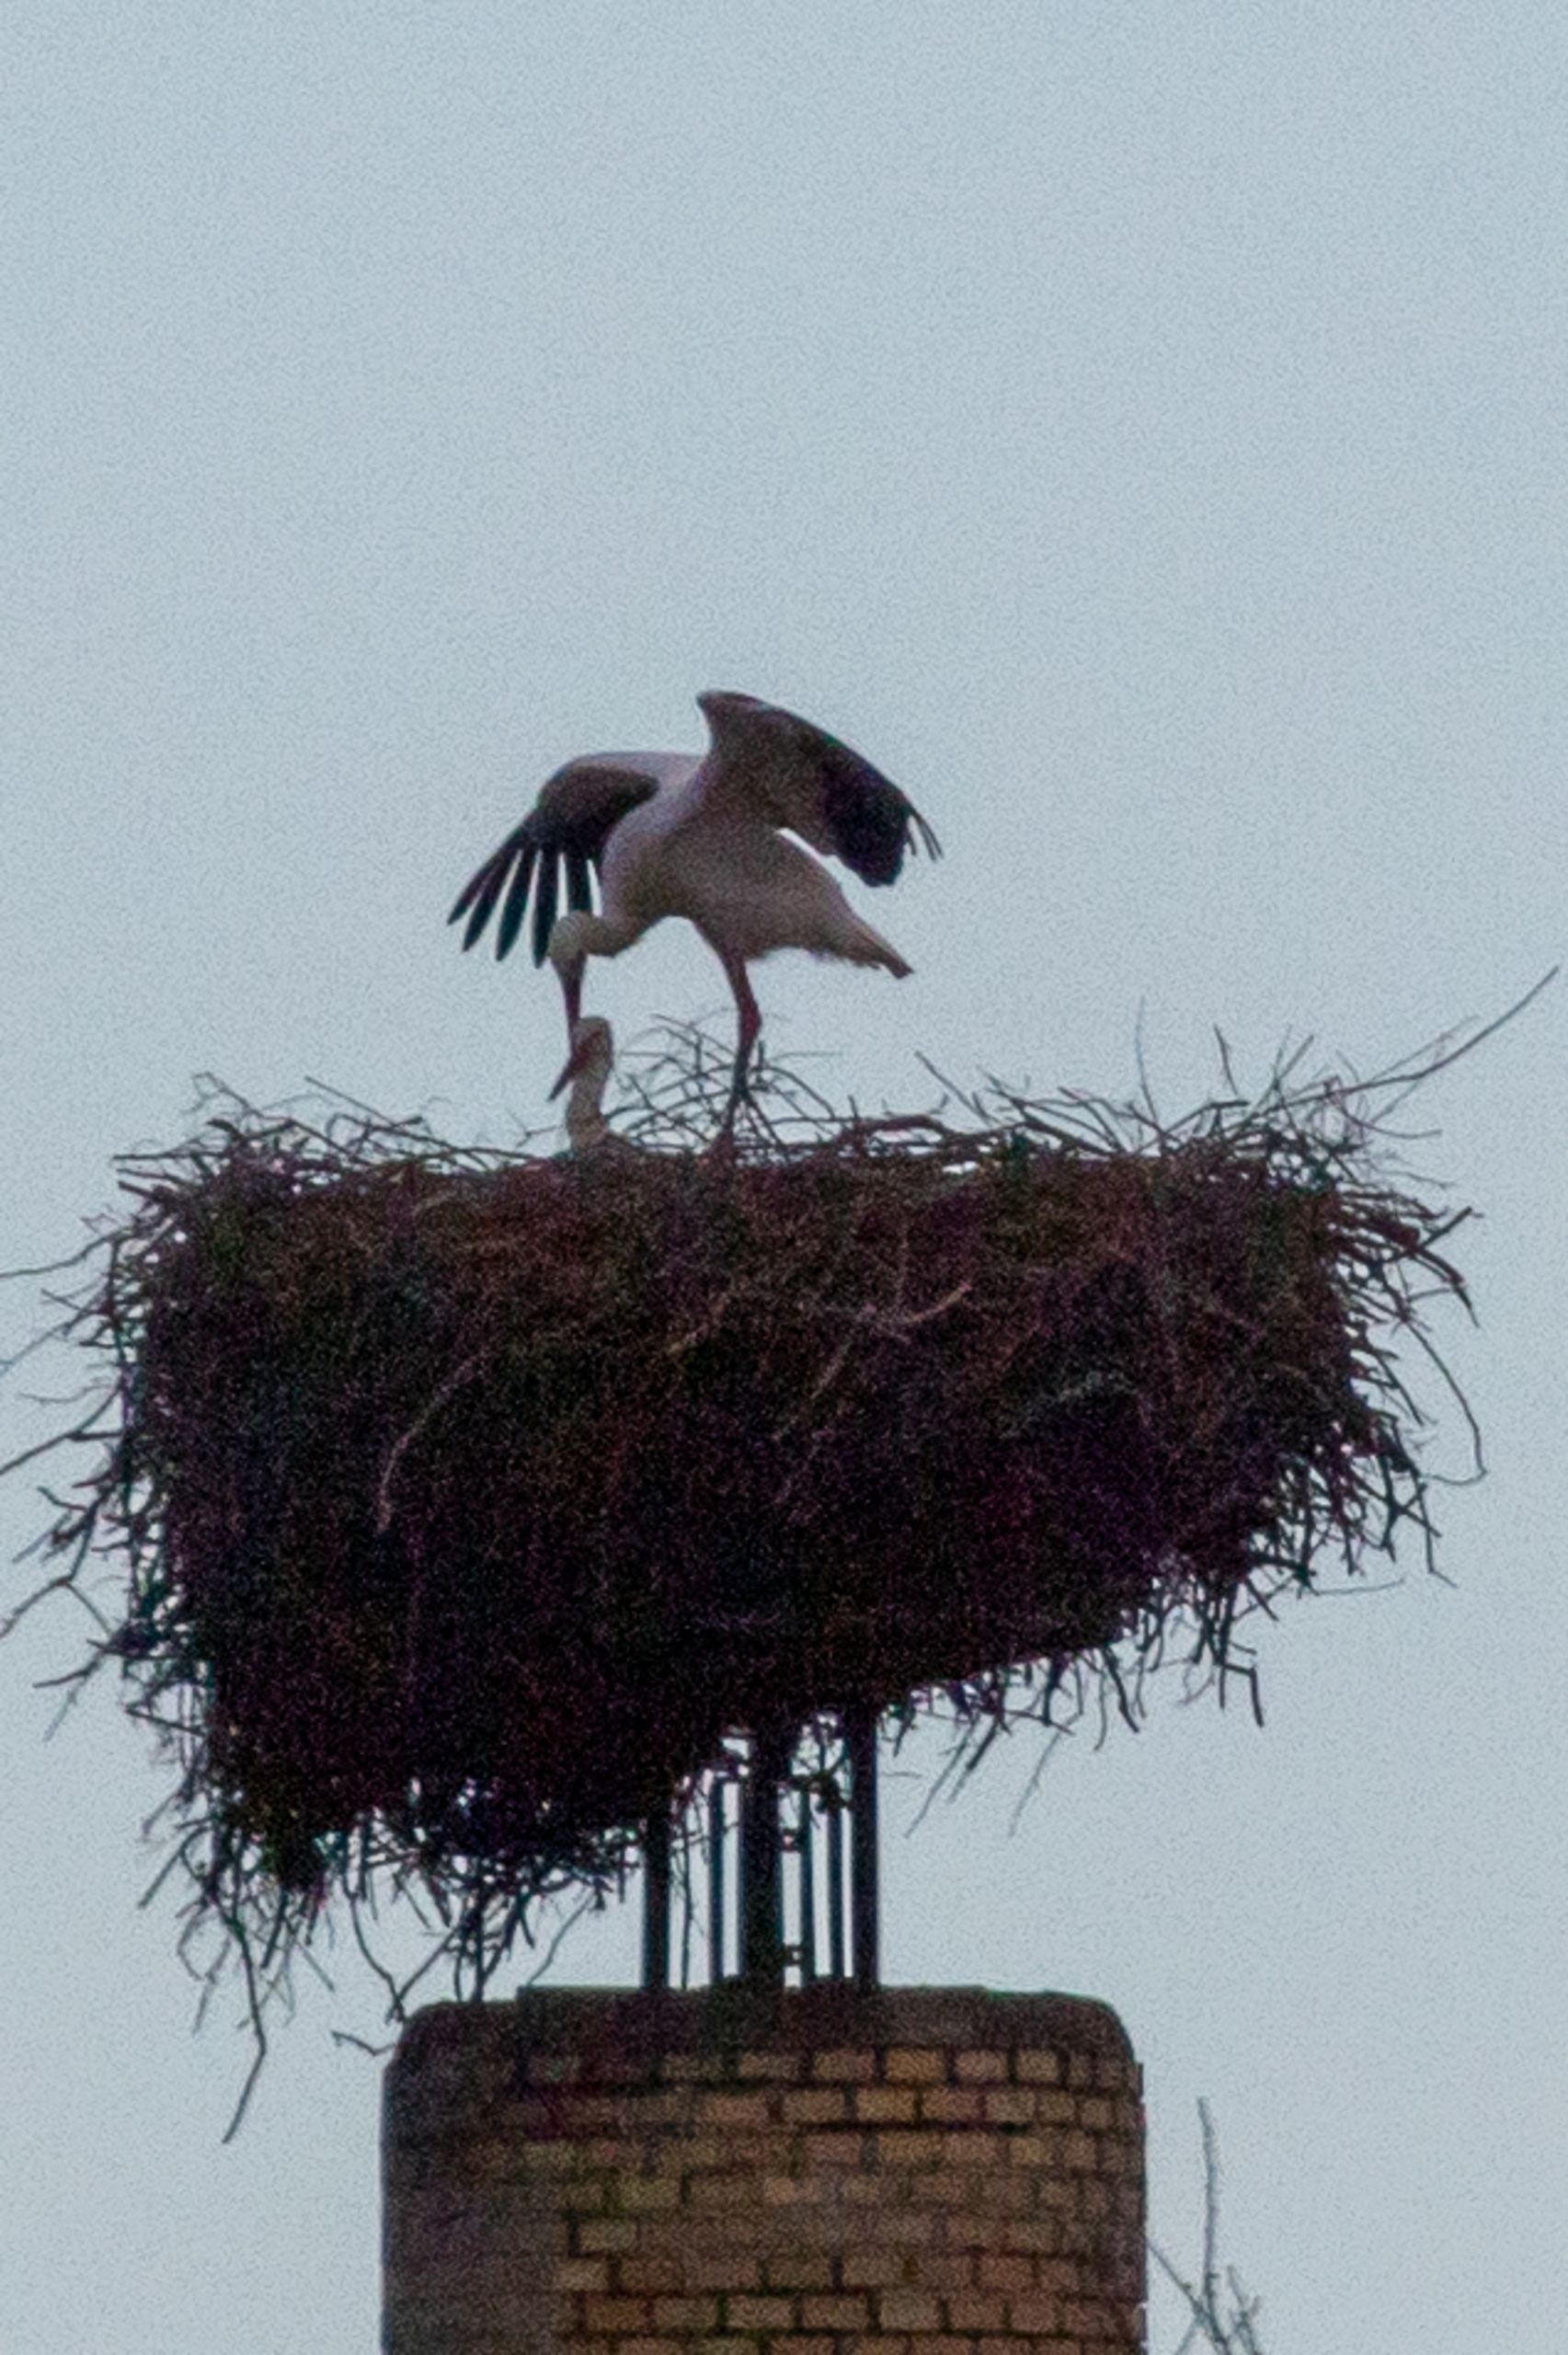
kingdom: Animalia
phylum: Chordata
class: Aves
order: Ciconiiformes
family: Ciconiidae
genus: Ciconia
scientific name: Ciconia ciconia
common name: Hvid stork
